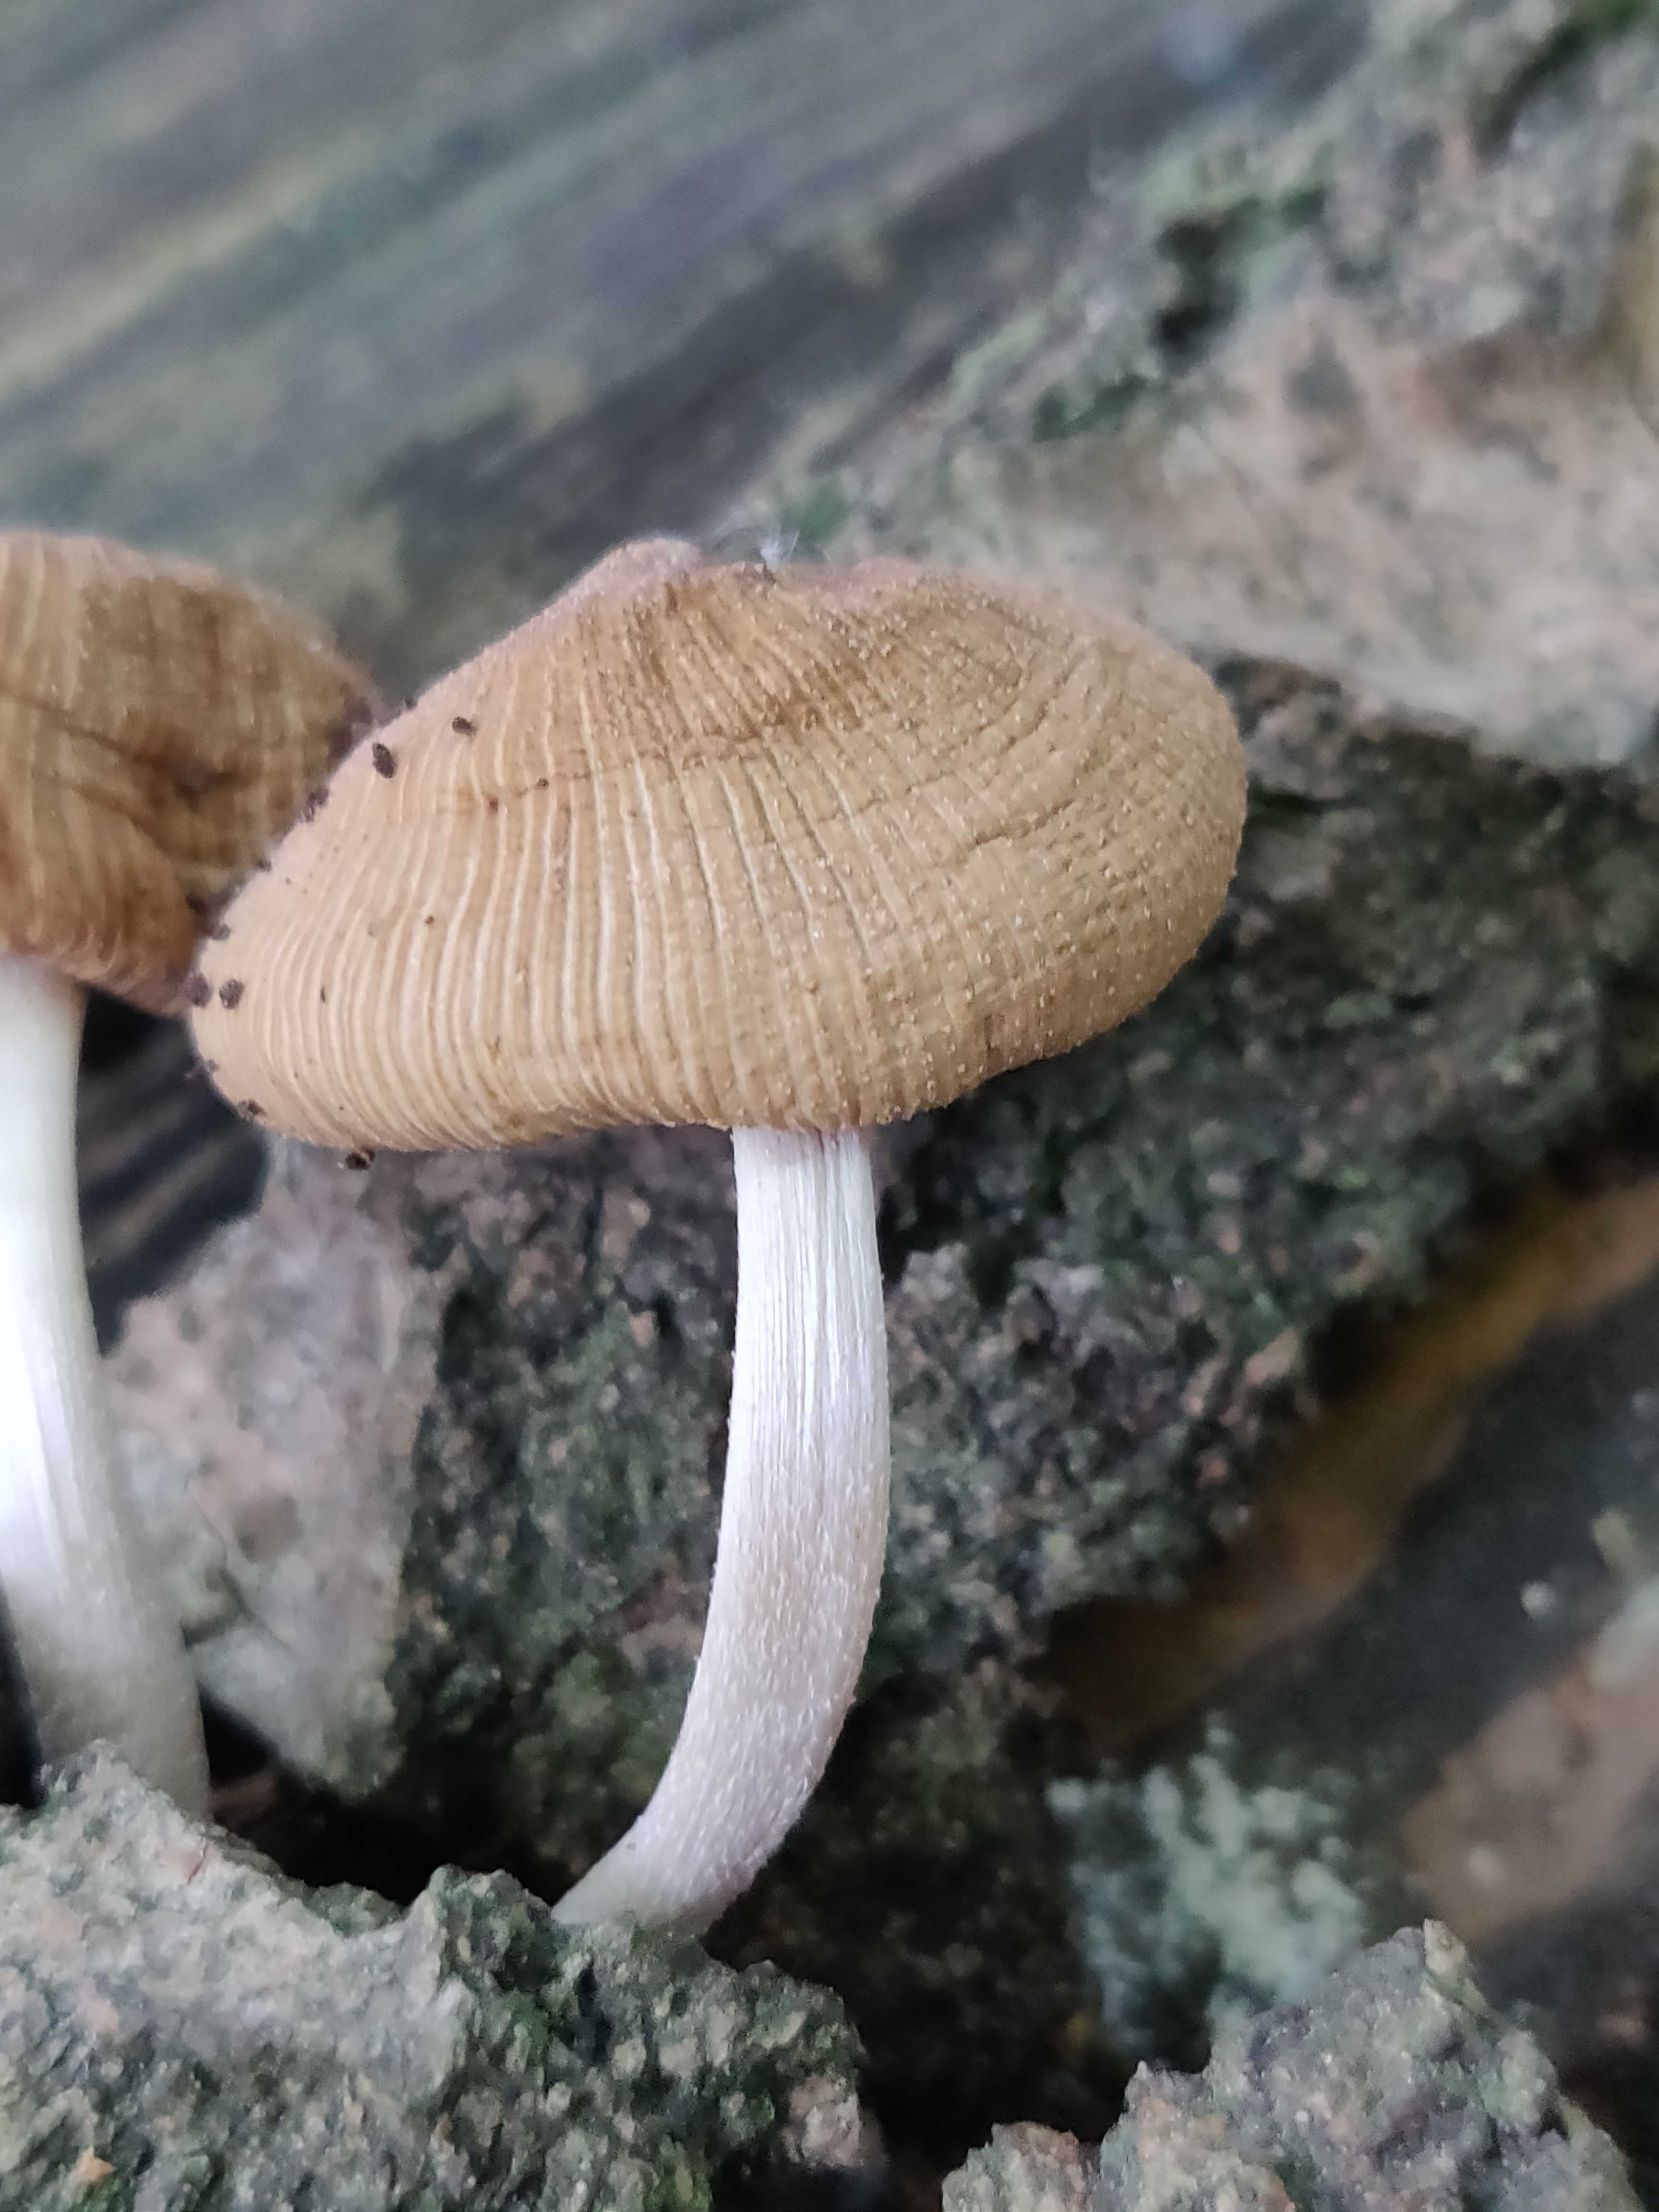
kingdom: Fungi
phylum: Basidiomycota
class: Agaricomycetes
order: Agaricales
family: Psathyrellaceae
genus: Coprinellus
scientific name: Coprinellus
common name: blækhat
